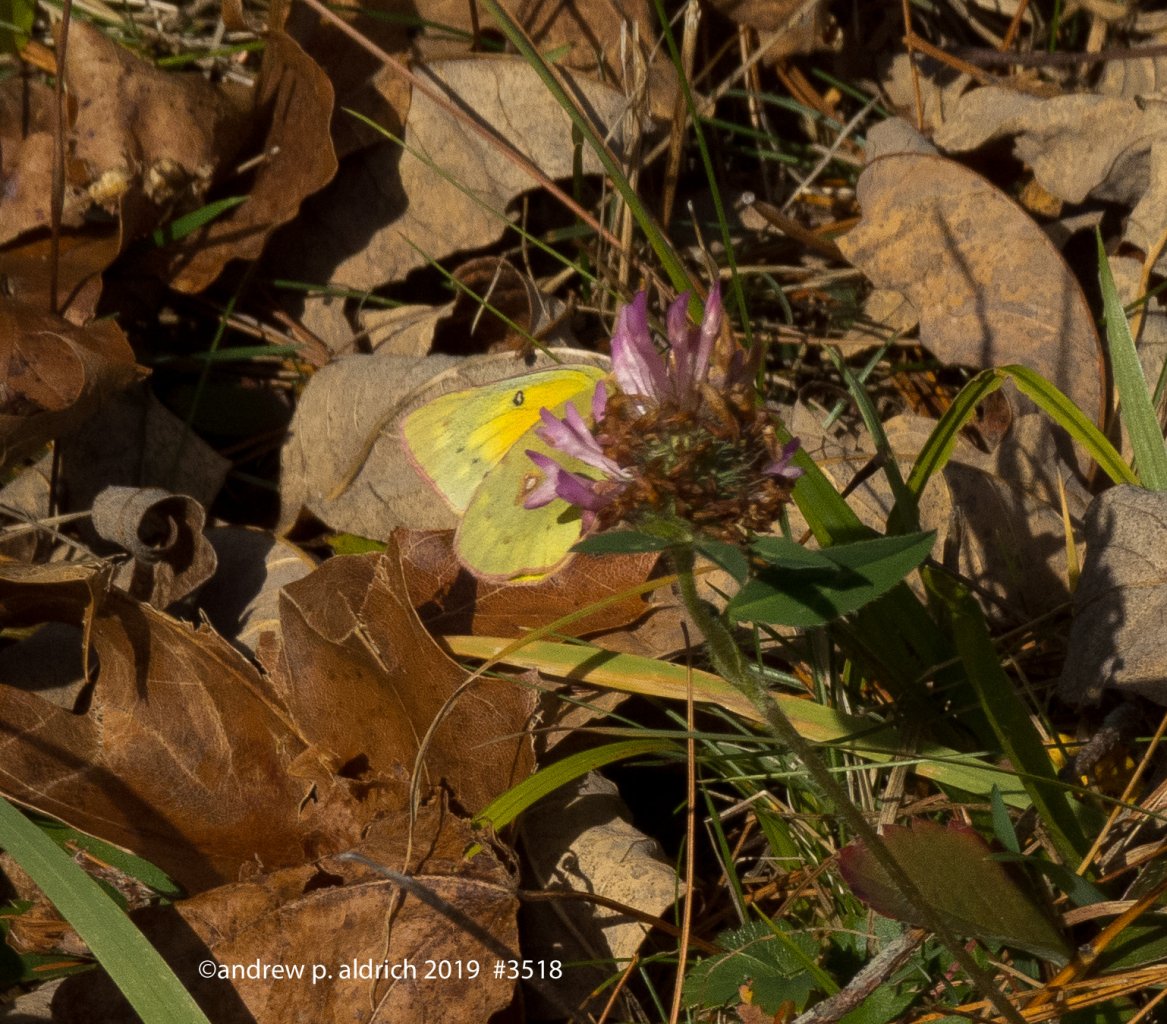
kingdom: Animalia
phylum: Arthropoda
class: Insecta
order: Lepidoptera
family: Pieridae
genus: Colias
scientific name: Colias eurytheme
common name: Orange Sulphur
